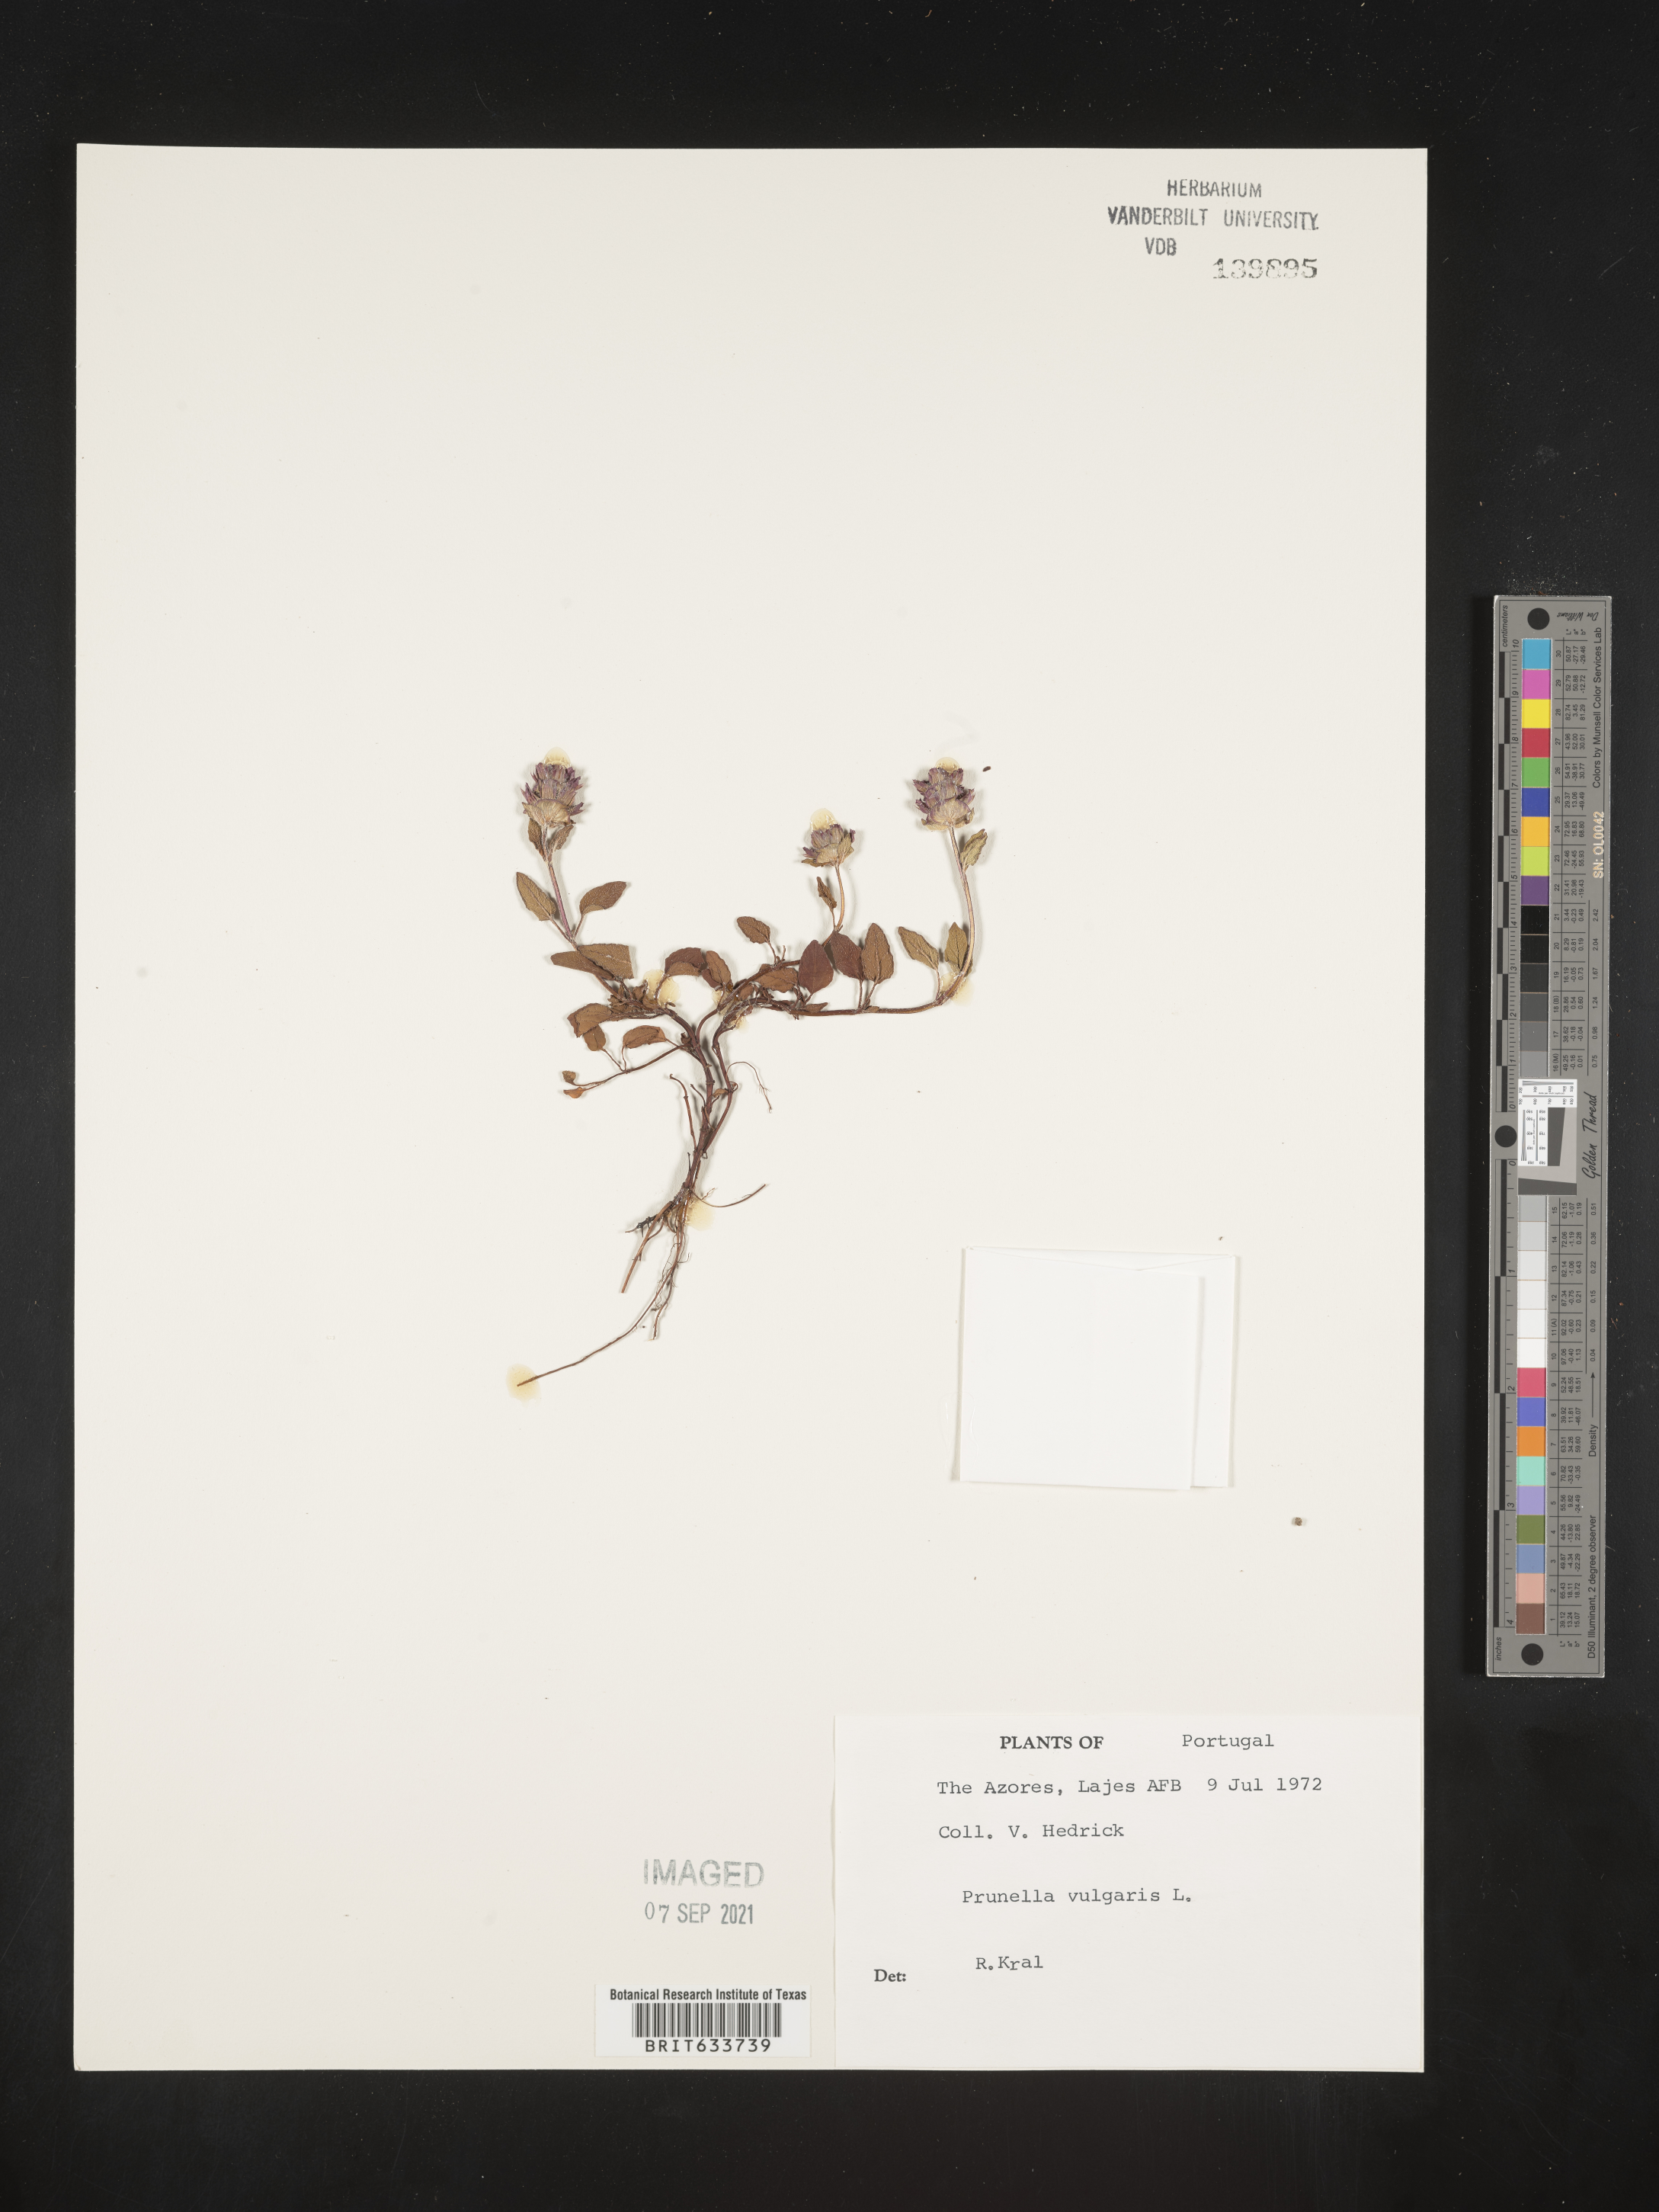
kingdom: Plantae
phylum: Tracheophyta
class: Magnoliopsida
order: Lamiales
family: Lamiaceae
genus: Prunella
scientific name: Prunella
